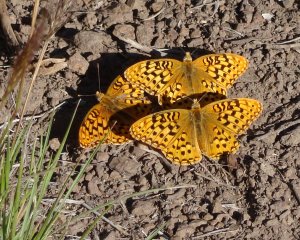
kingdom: Animalia
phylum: Arthropoda
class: Insecta
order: Lepidoptera
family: Nymphalidae
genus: Speyeria
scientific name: Speyeria zerene
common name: Zerene Fritillary
